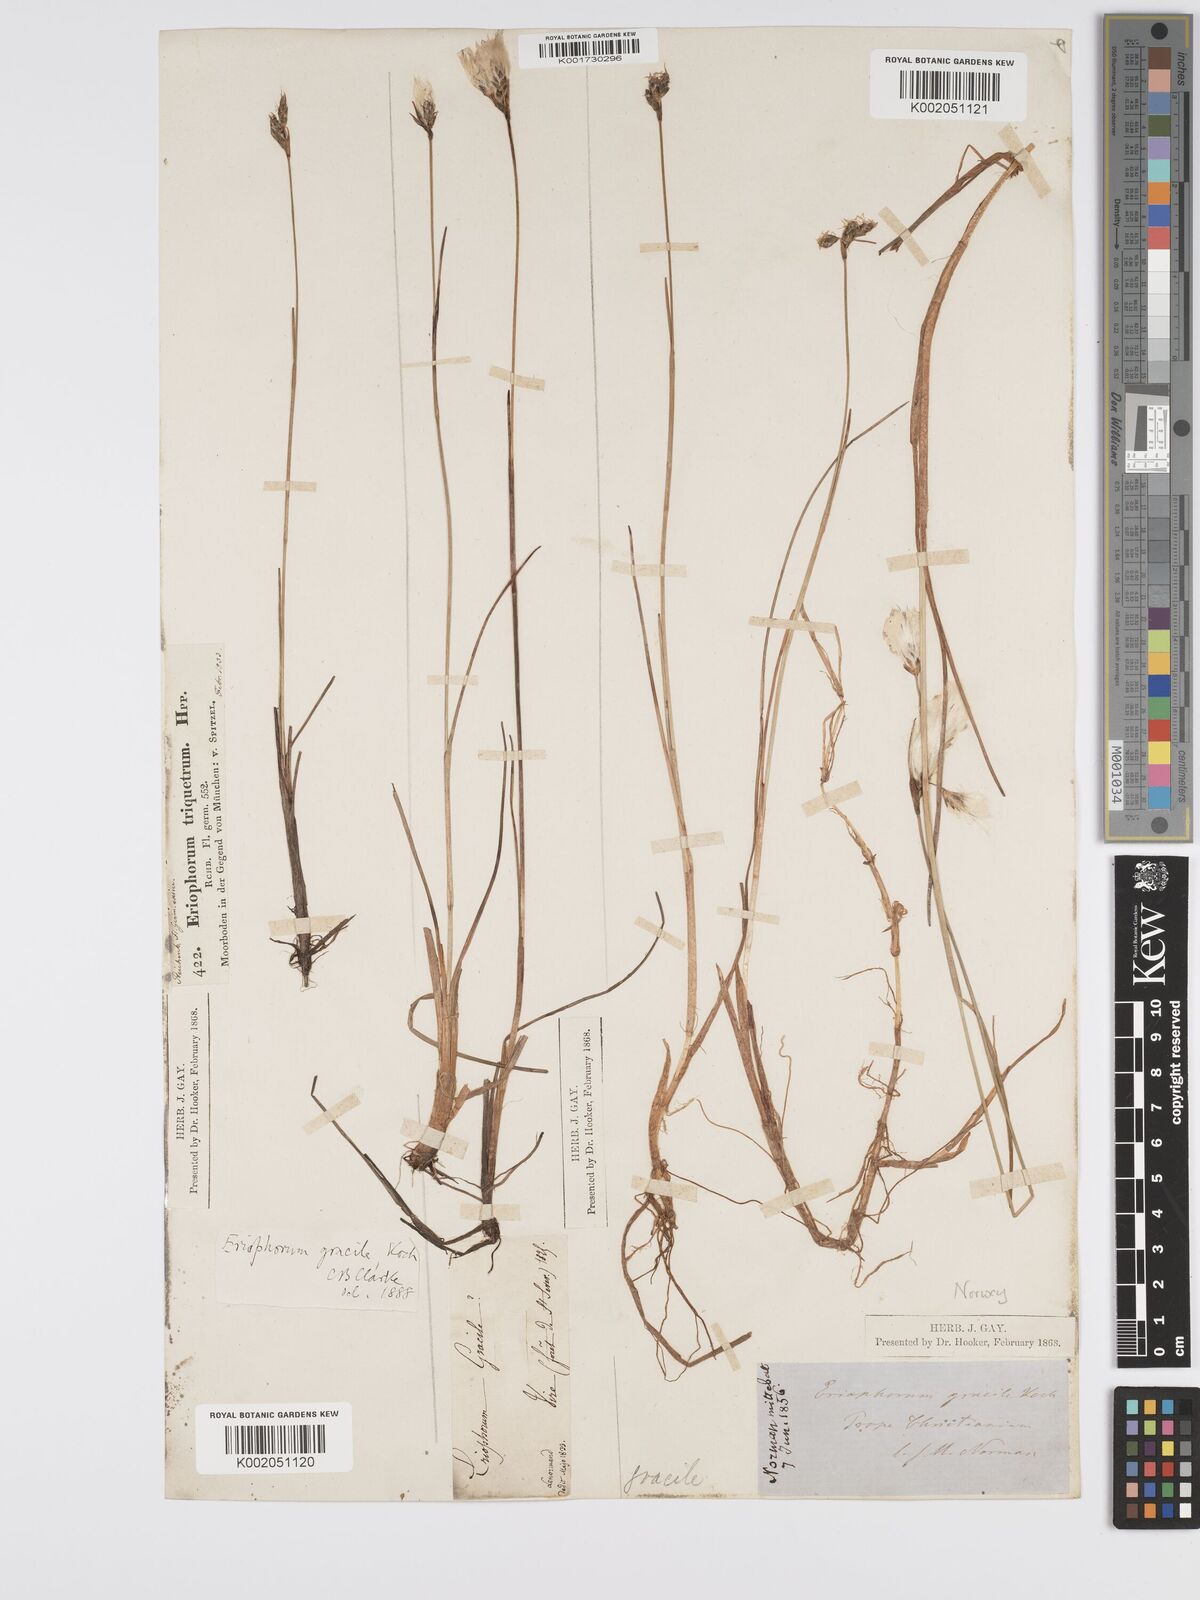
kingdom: Plantae
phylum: Tracheophyta
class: Liliopsida
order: Poales
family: Cyperaceae
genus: Eriophorum
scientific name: Eriophorum gracile
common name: Slender cottongrass
